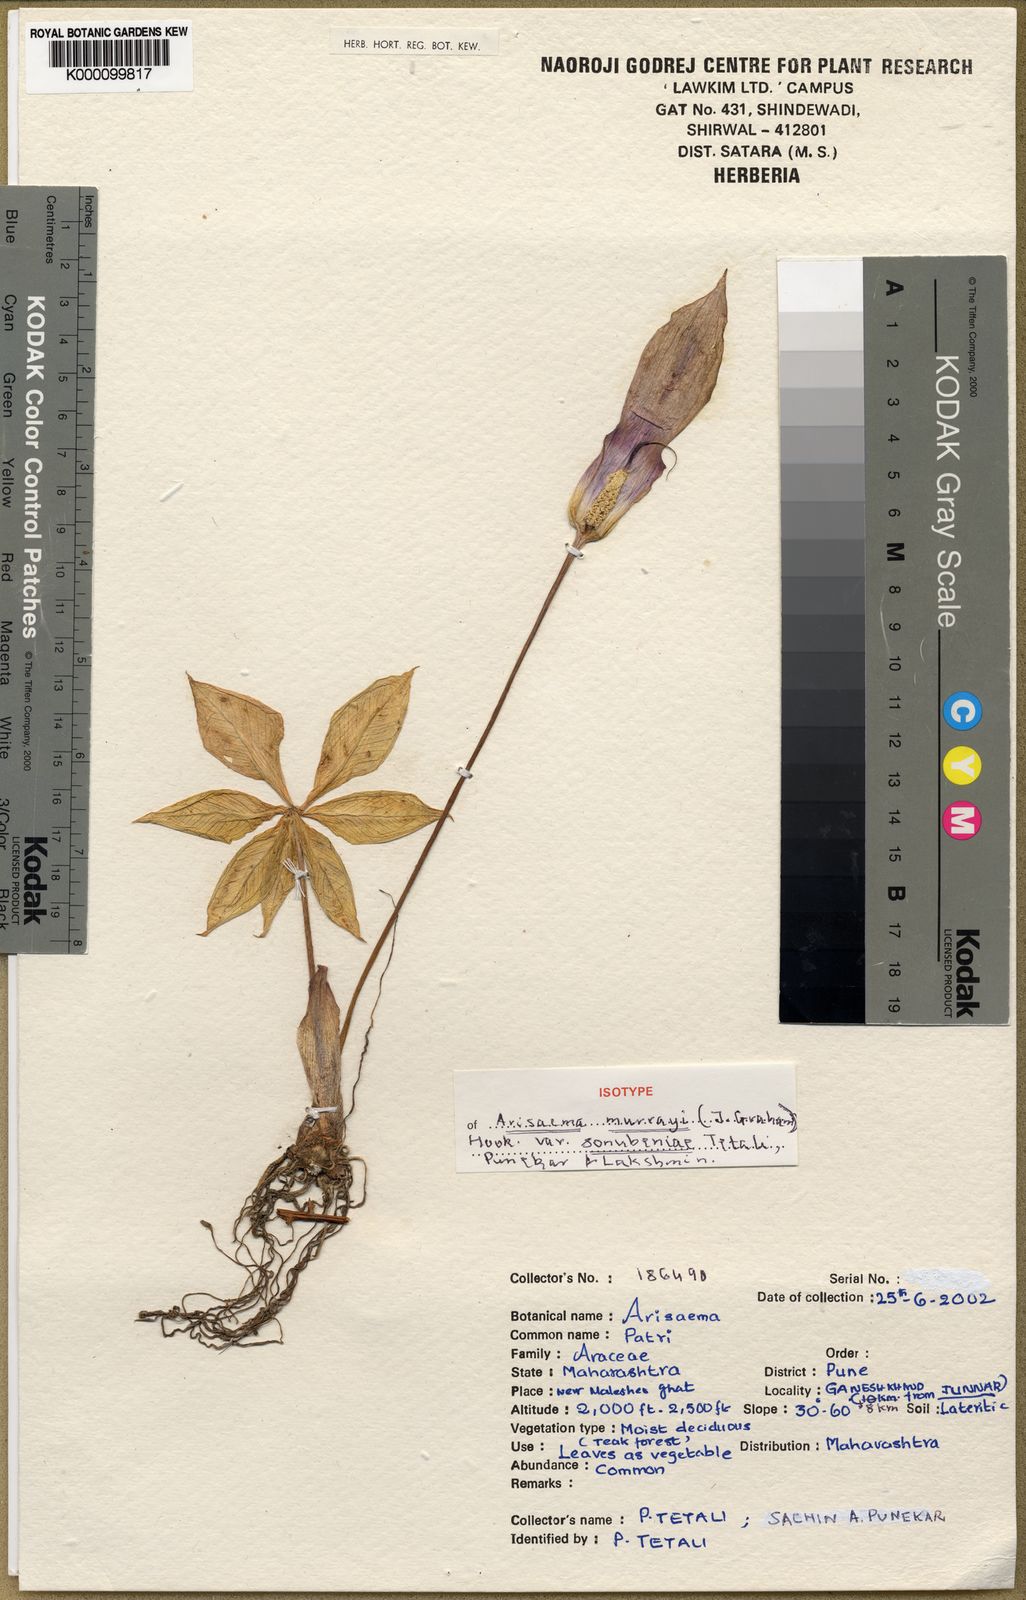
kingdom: Plantae
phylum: Tracheophyta
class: Liliopsida
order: Alismatales
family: Araceae
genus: Arisaema
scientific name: Arisaema murrayi
